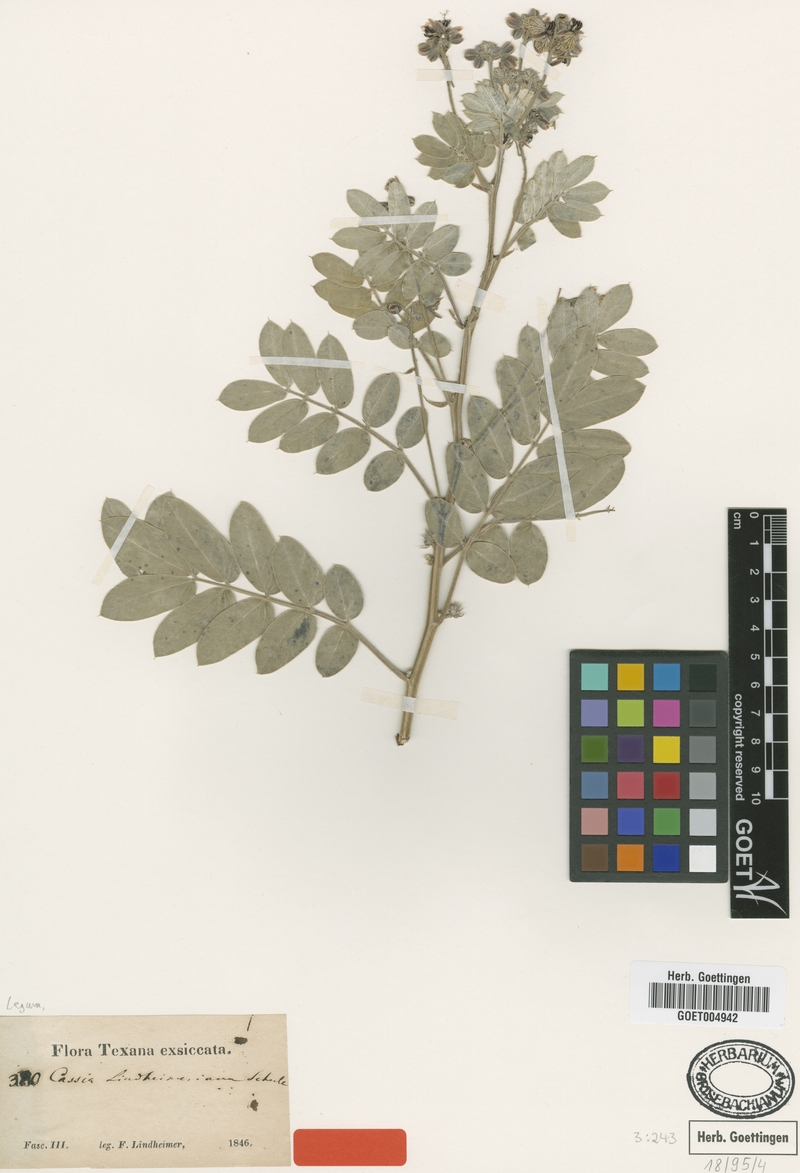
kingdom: Plantae
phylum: Tracheophyta
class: Magnoliopsida
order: Fabales
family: Fabaceae
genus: Senna
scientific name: Senna lindheimeriana
